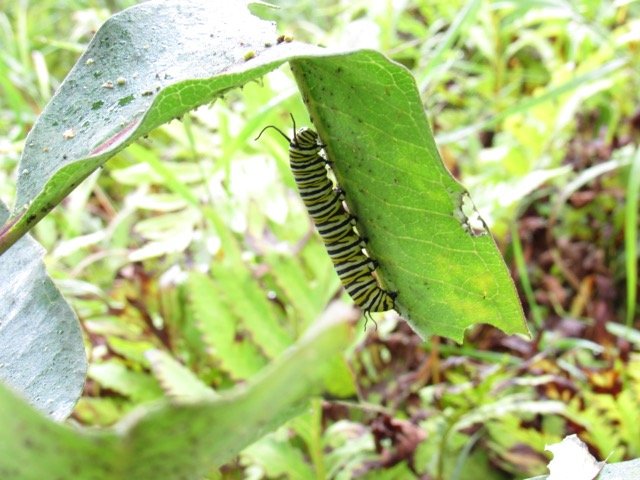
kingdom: Animalia
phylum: Arthropoda
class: Insecta
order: Lepidoptera
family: Nymphalidae
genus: Danaus
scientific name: Danaus plexippus
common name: Monarch
